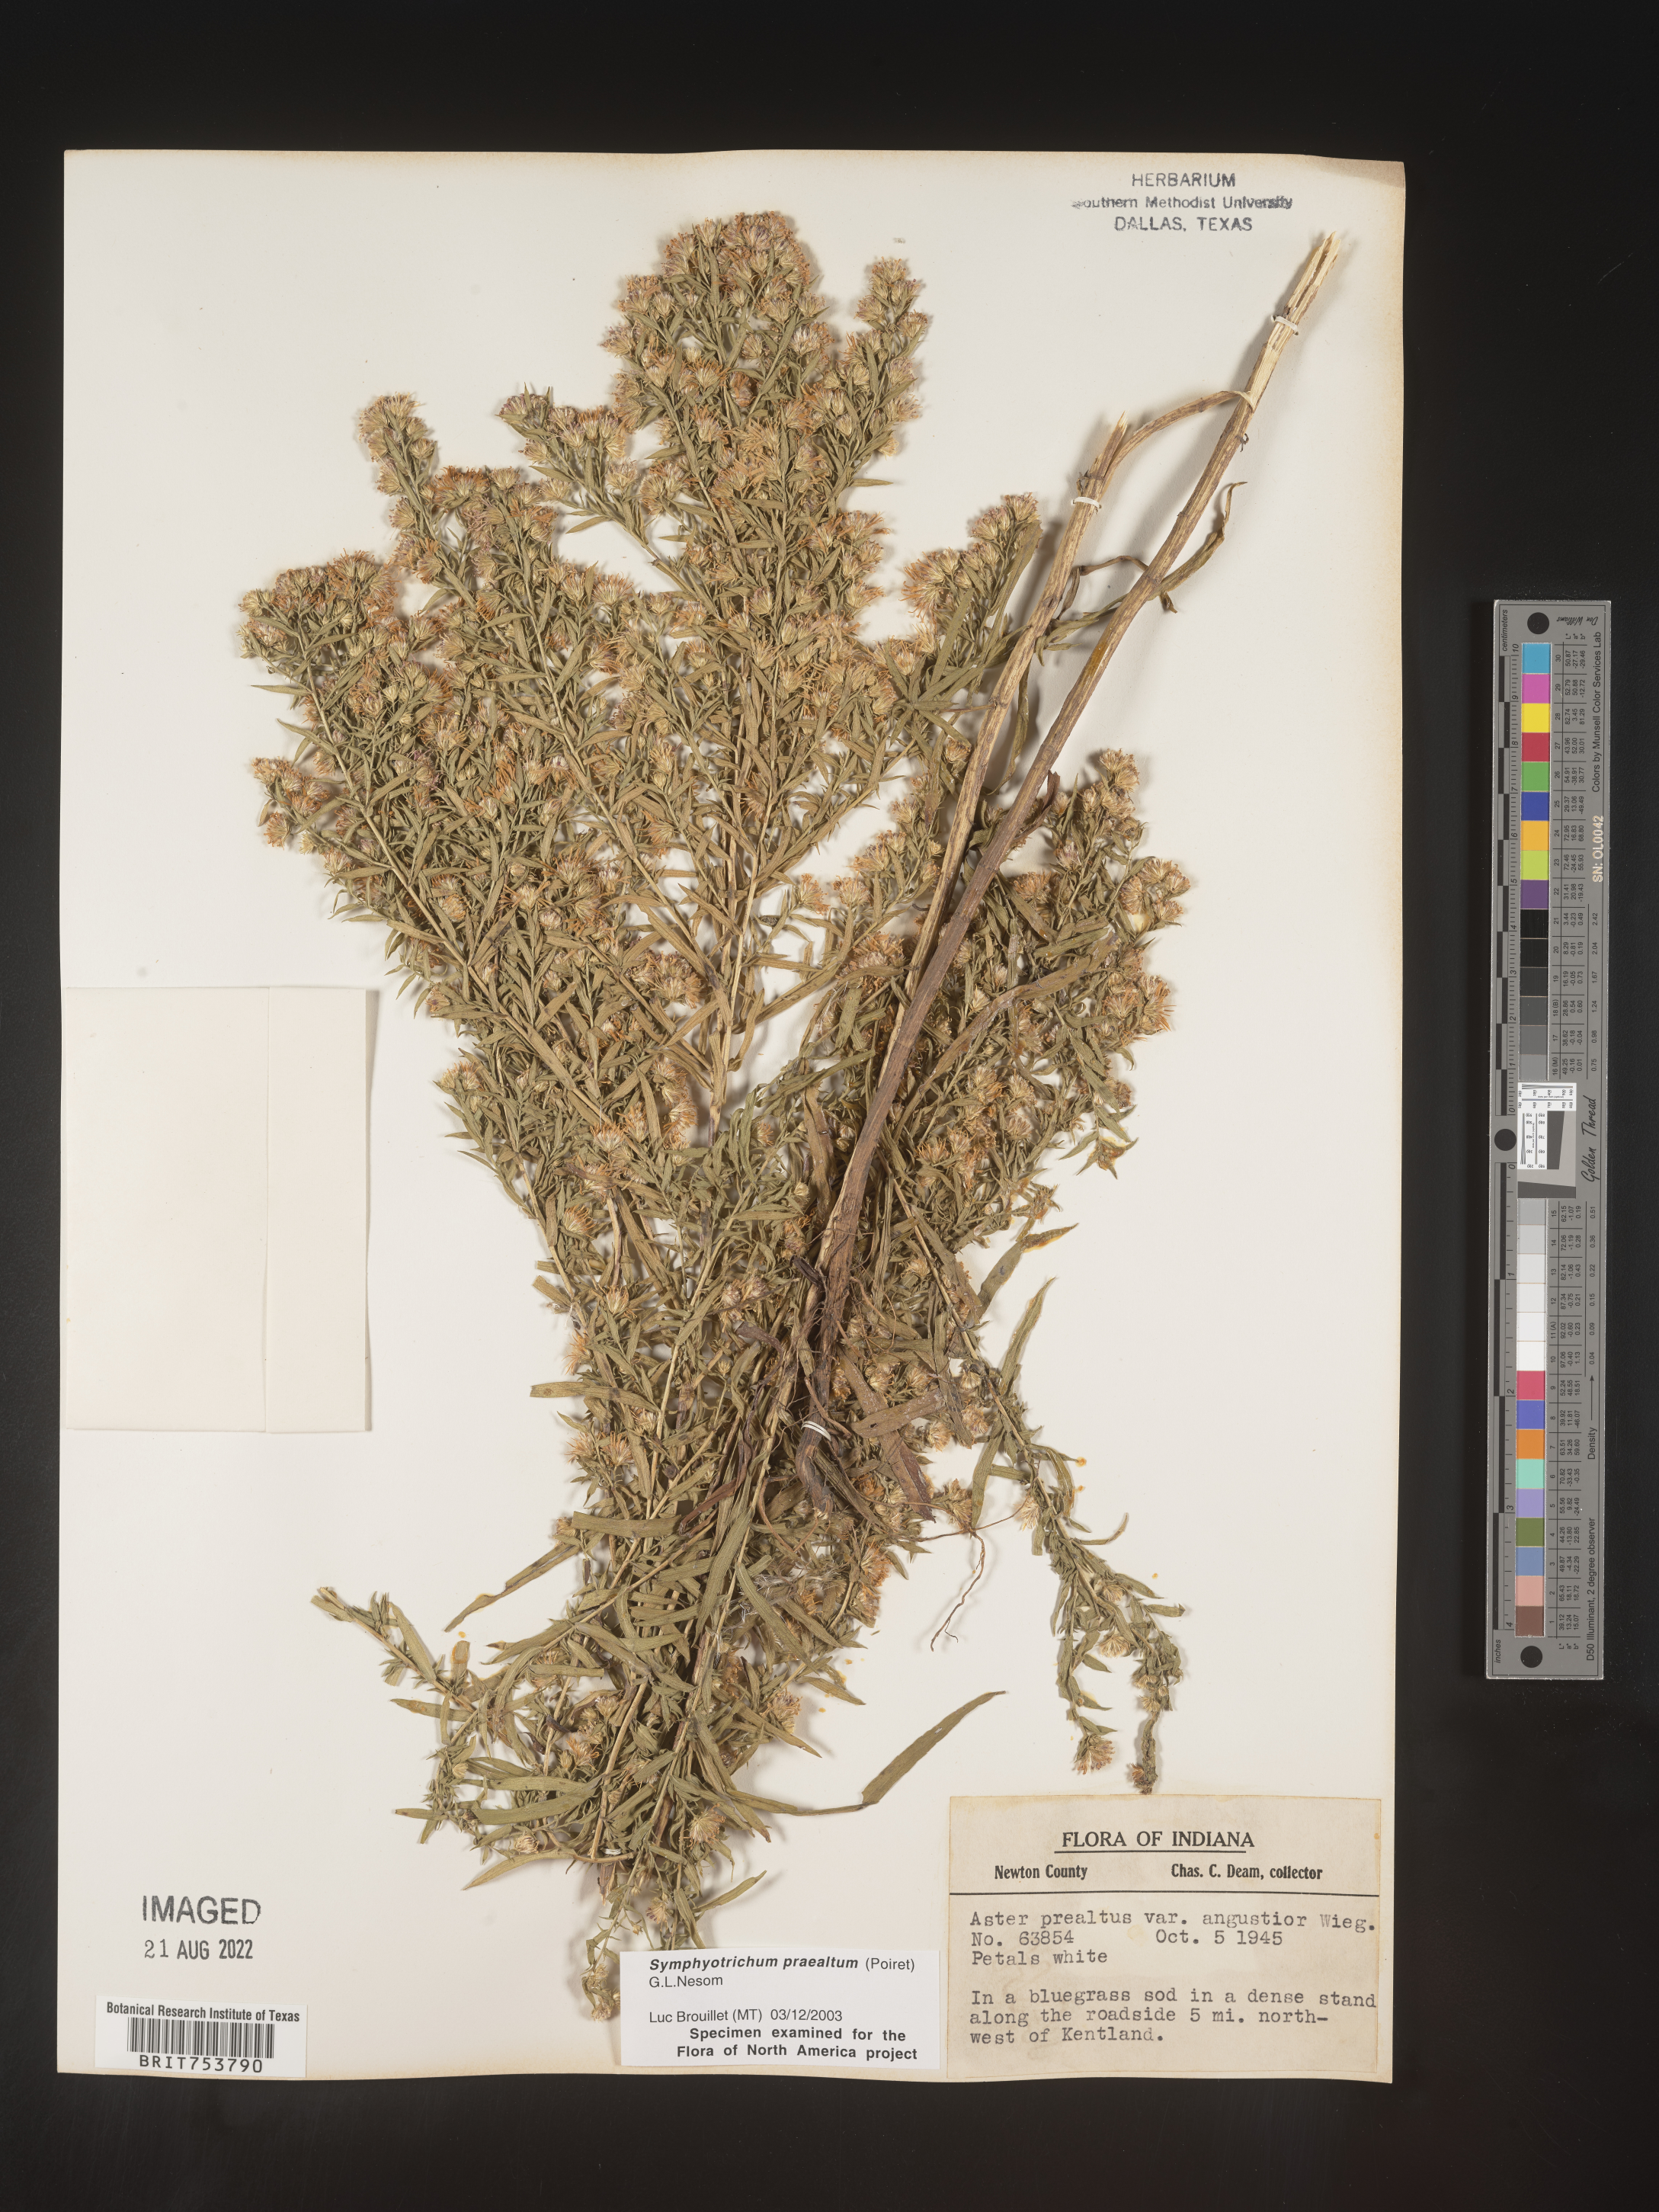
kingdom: Plantae
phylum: Tracheophyta
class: Magnoliopsida
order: Asterales
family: Asteraceae
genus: Symphyotrichum
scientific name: Symphyotrichum praealtum
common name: Willow aster
